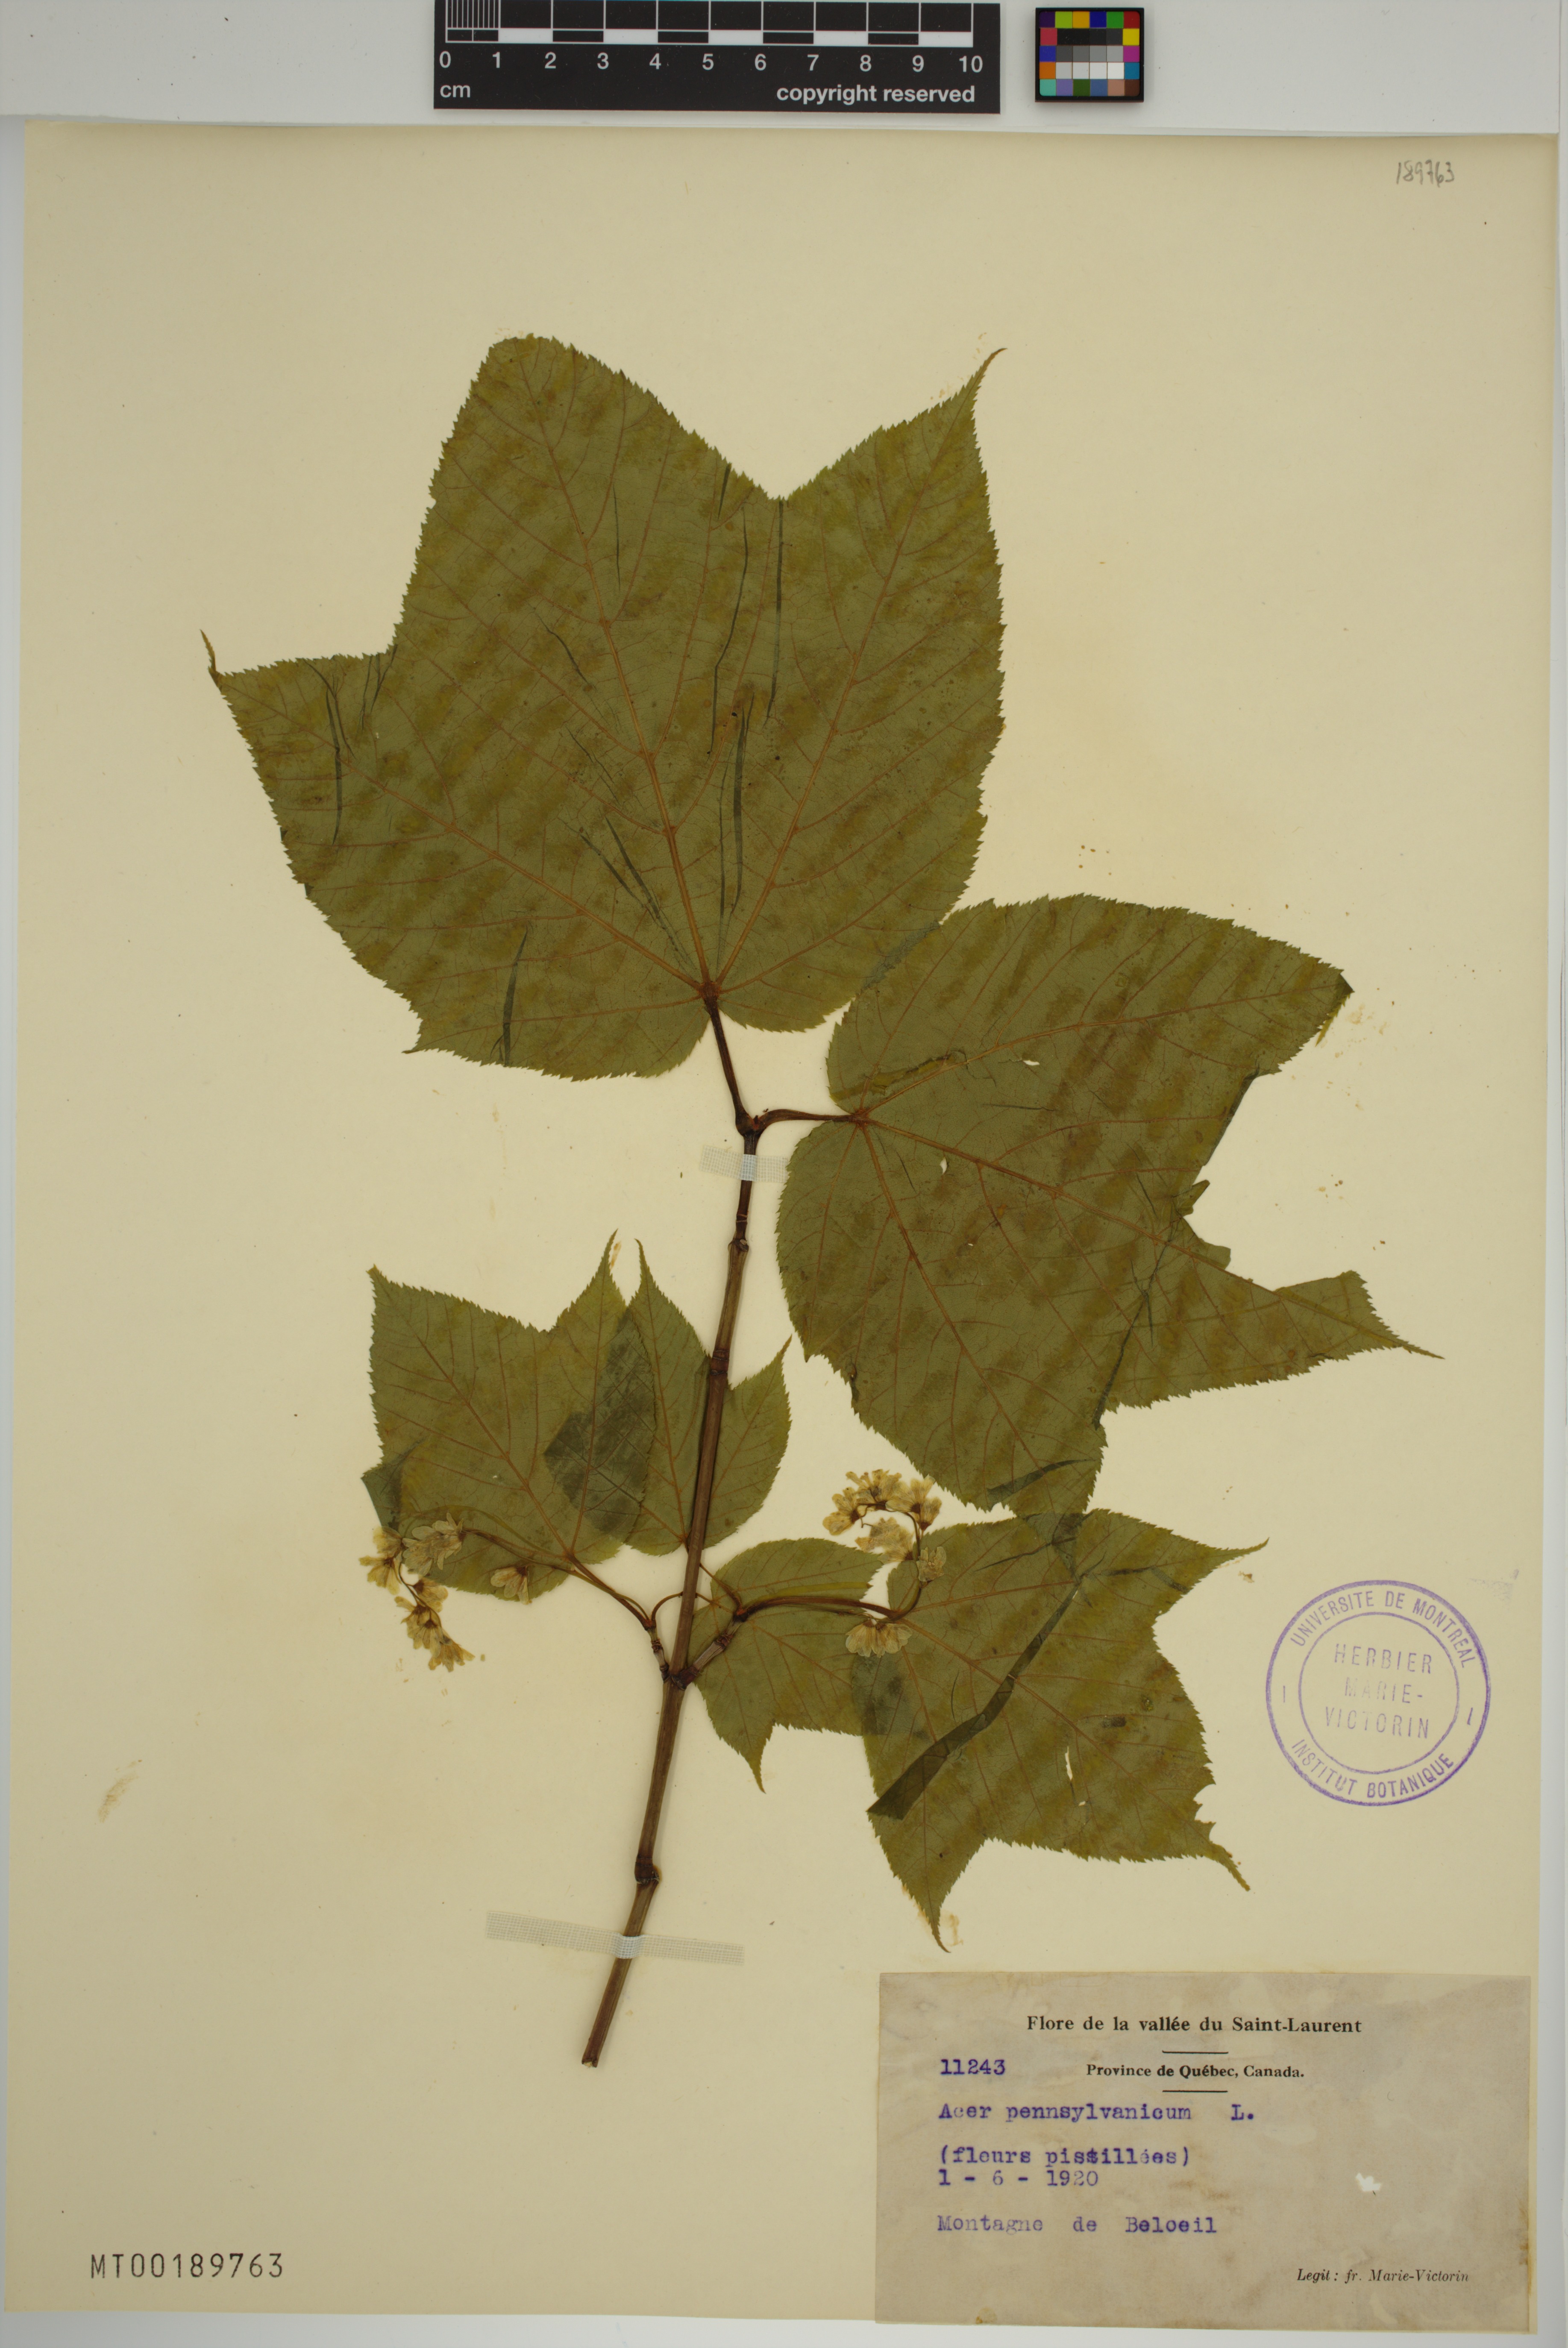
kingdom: Plantae
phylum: Tracheophyta
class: Magnoliopsida
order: Sapindales
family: Sapindaceae
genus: Acer
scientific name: Acer pensylvanicum
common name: Moosewood
